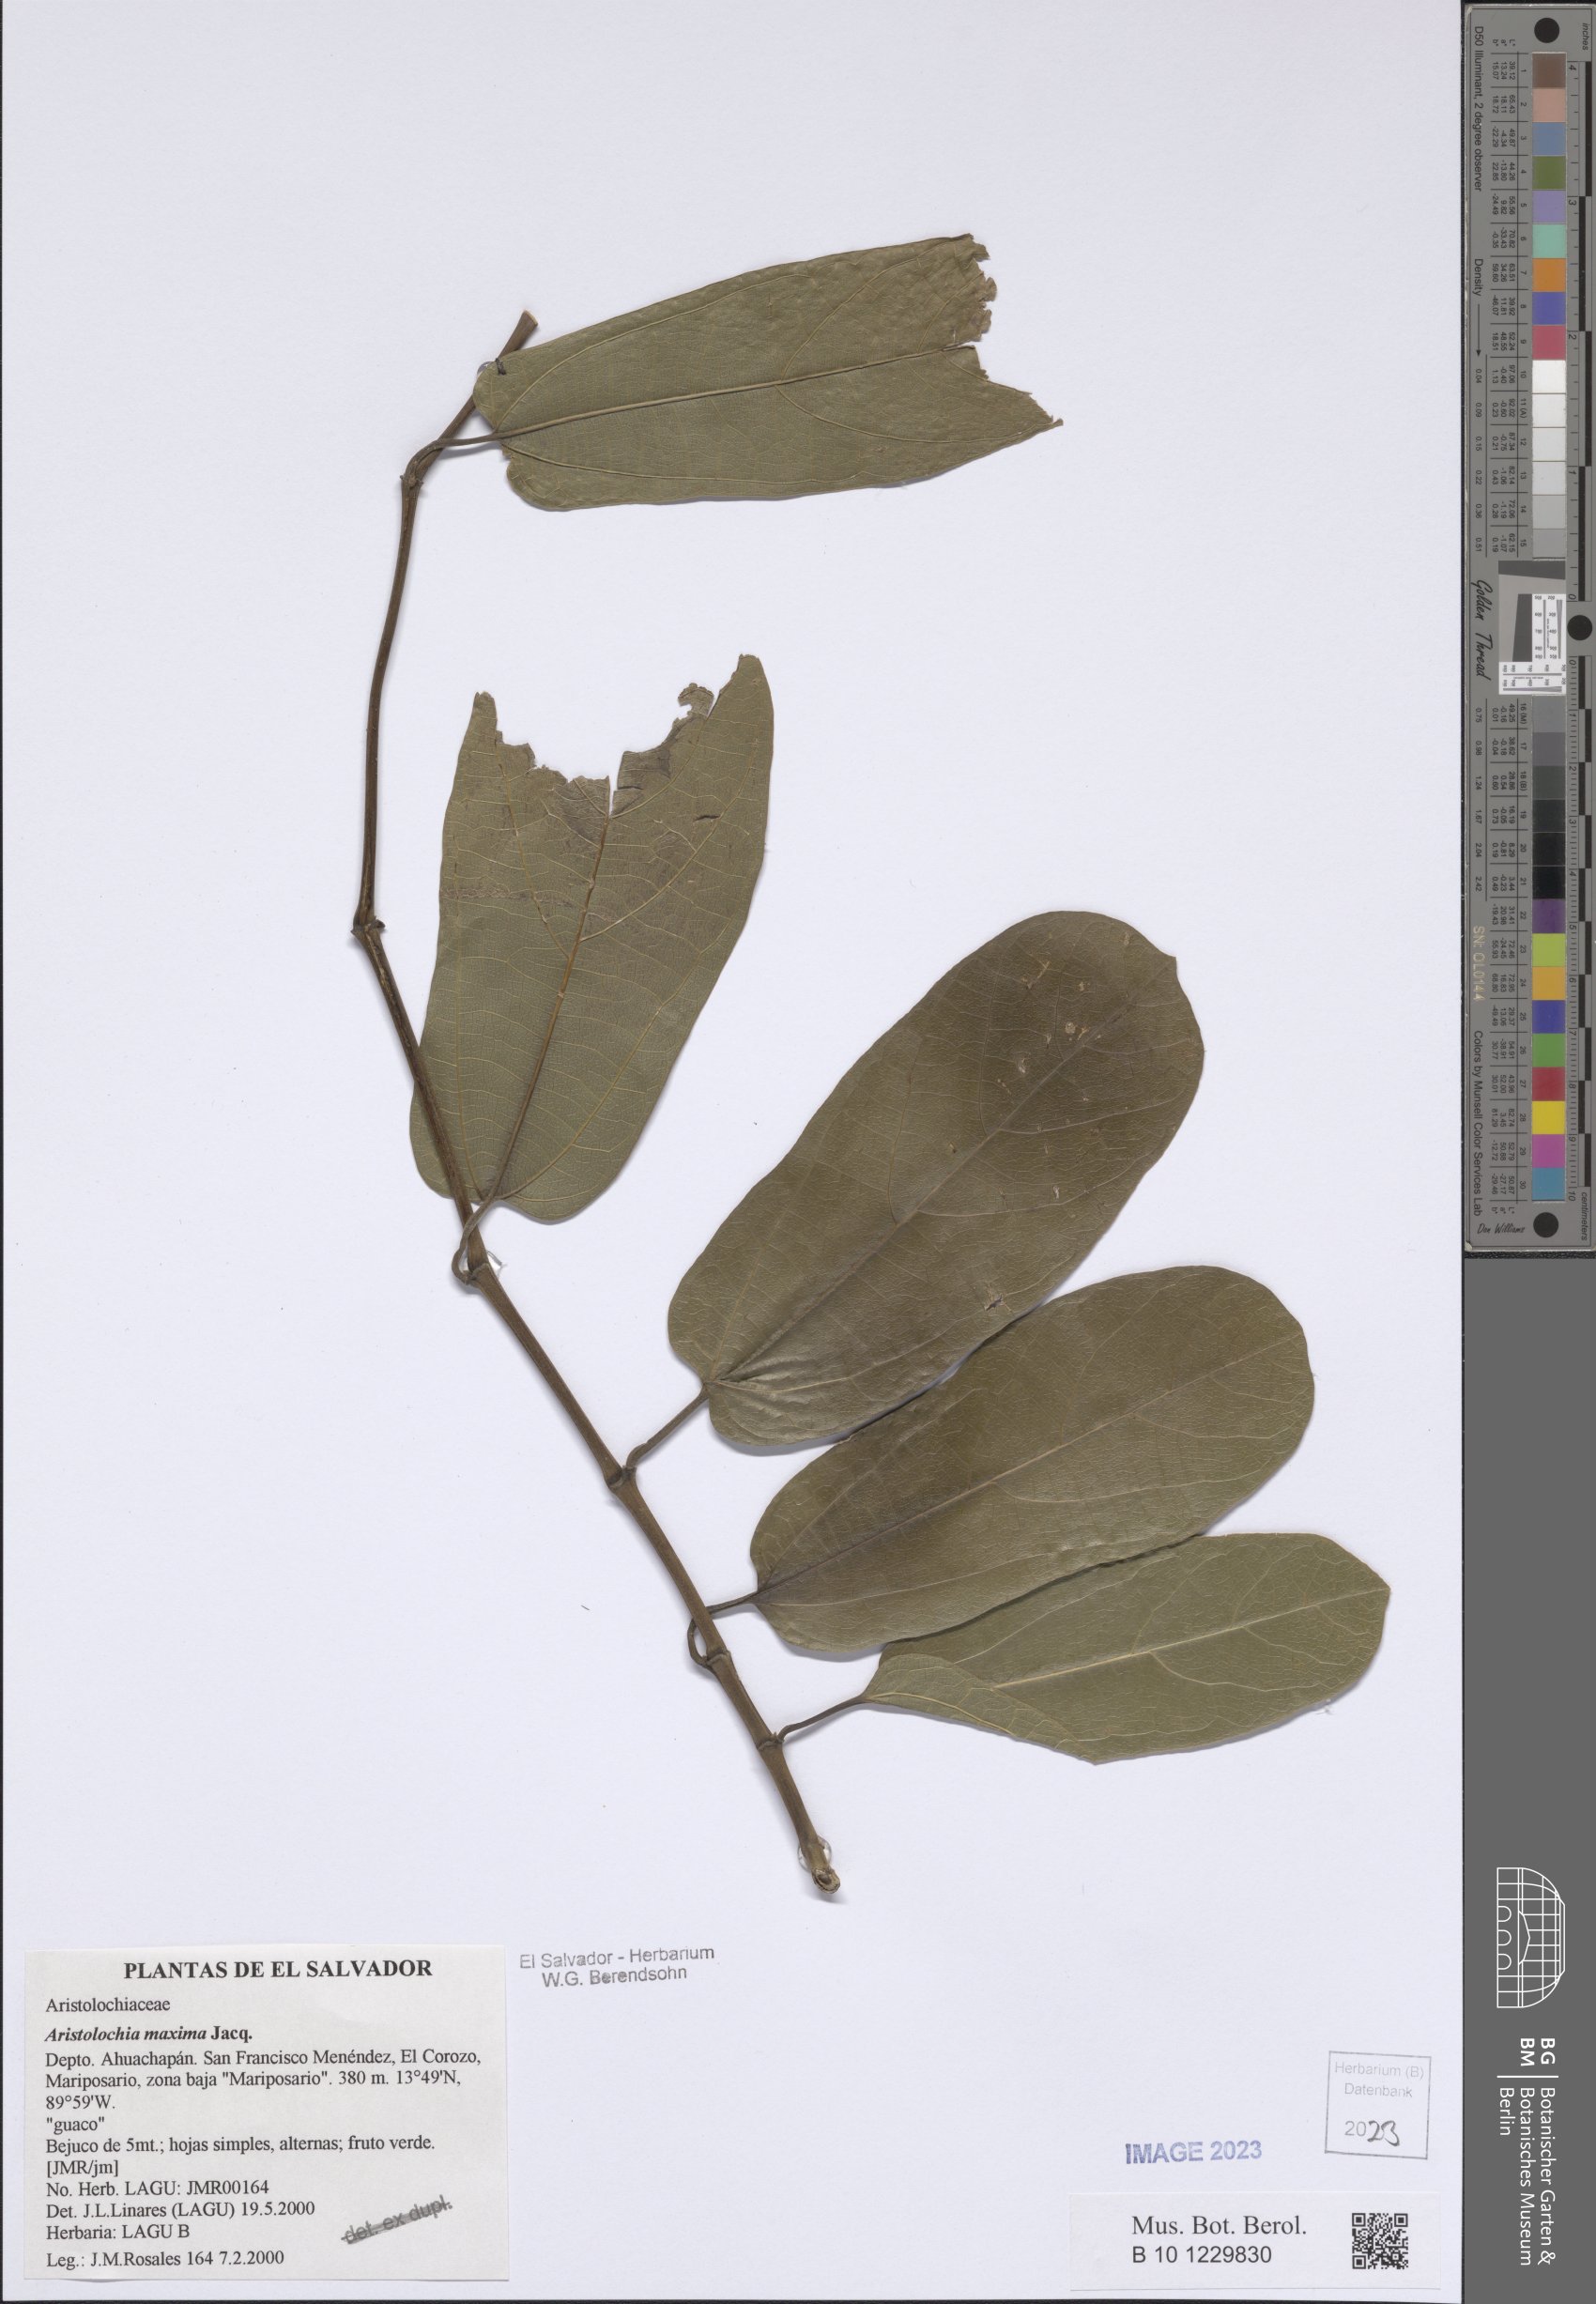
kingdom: Plantae
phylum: Tracheophyta
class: Magnoliopsida
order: Piperales
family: Aristolochiaceae
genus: Aristolochia
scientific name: Aristolochia maxima
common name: Florida dutchman's pipe
